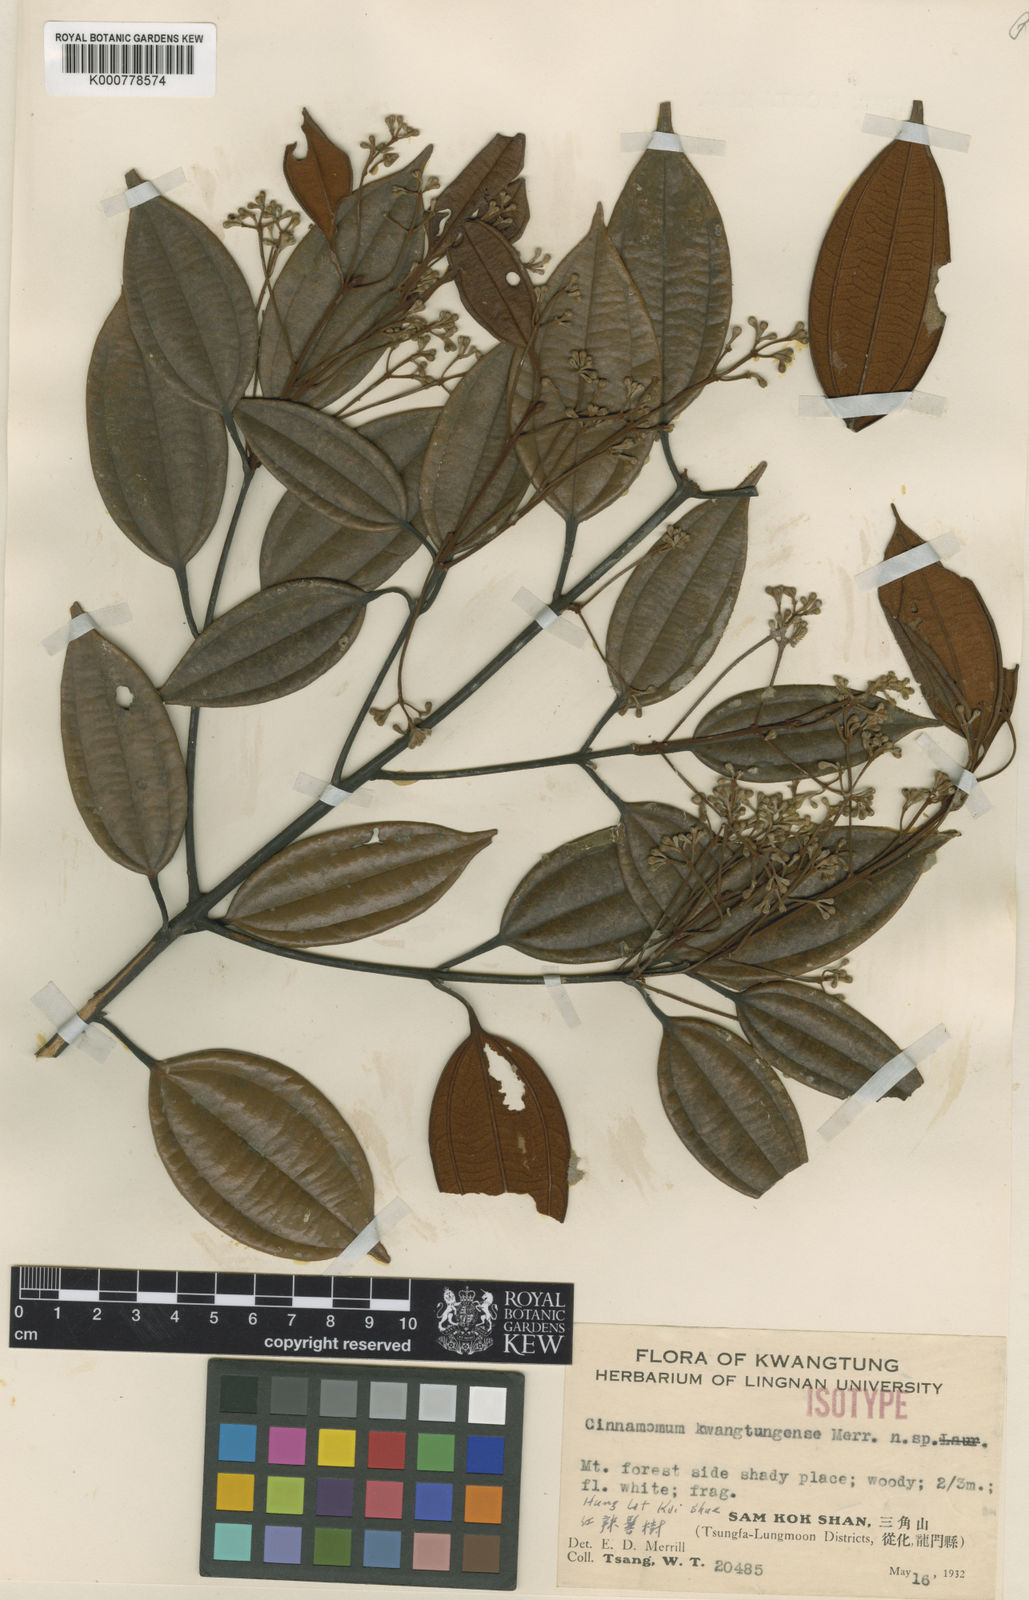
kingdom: Plantae
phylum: Tracheophyta
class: Magnoliopsida
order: Laurales
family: Lauraceae
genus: Cinnamomum
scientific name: Cinnamomum kwangtungense
